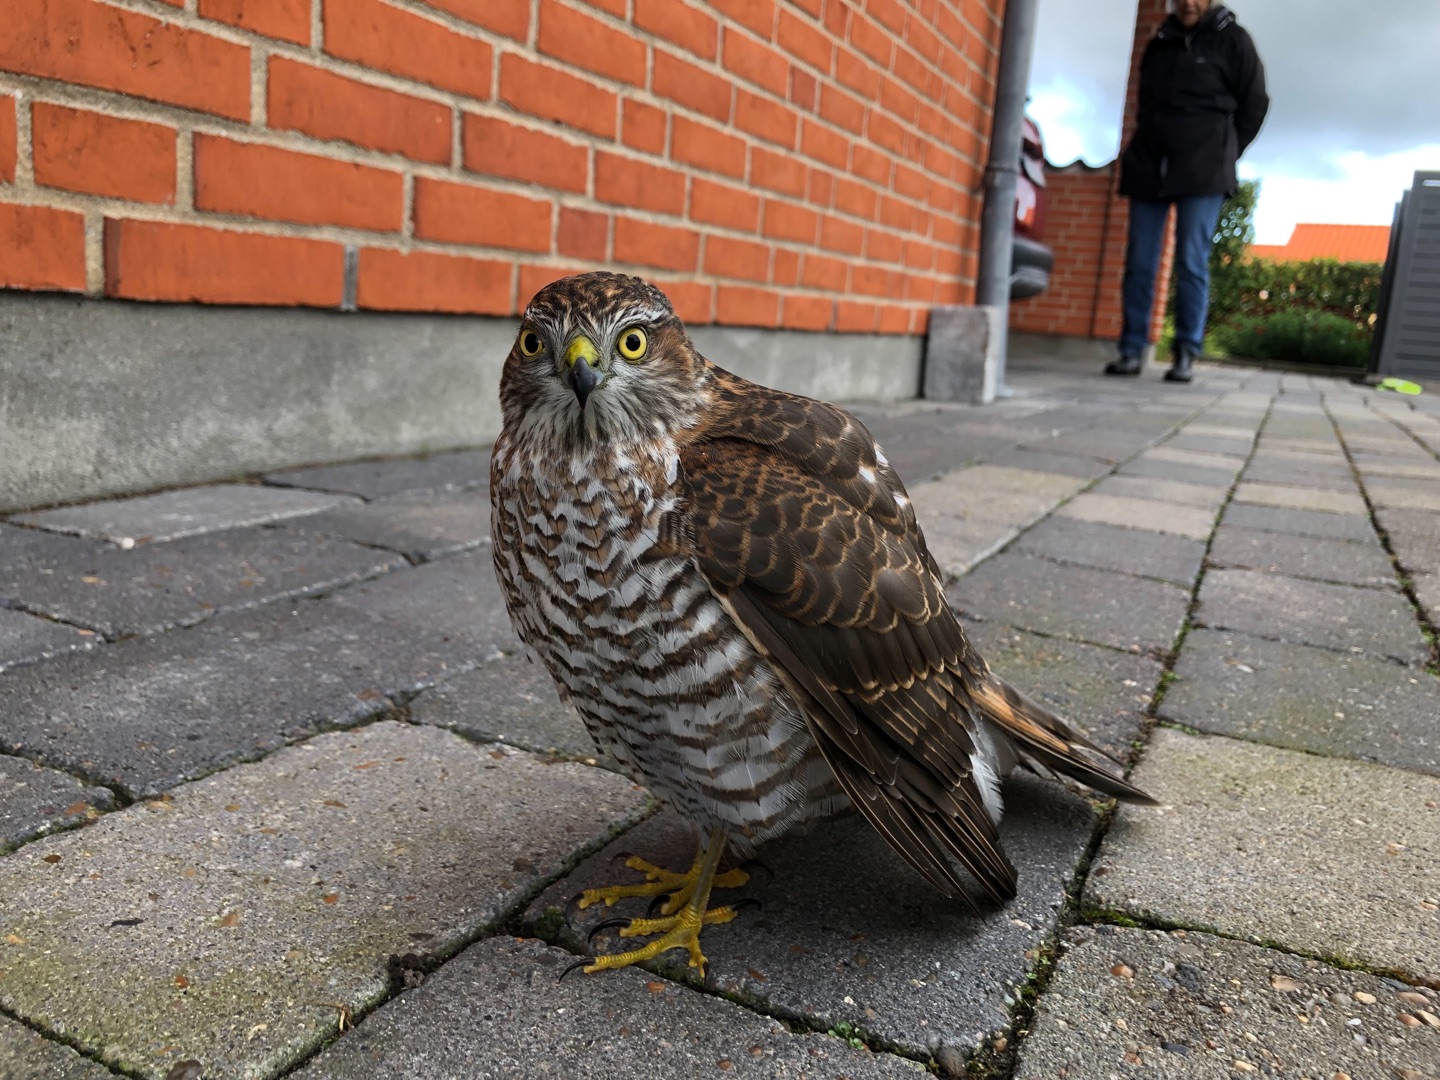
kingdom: Animalia
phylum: Chordata
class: Aves
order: Accipitriformes
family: Accipitridae
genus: Accipiter
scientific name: Accipiter nisus
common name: Spurvehøg
